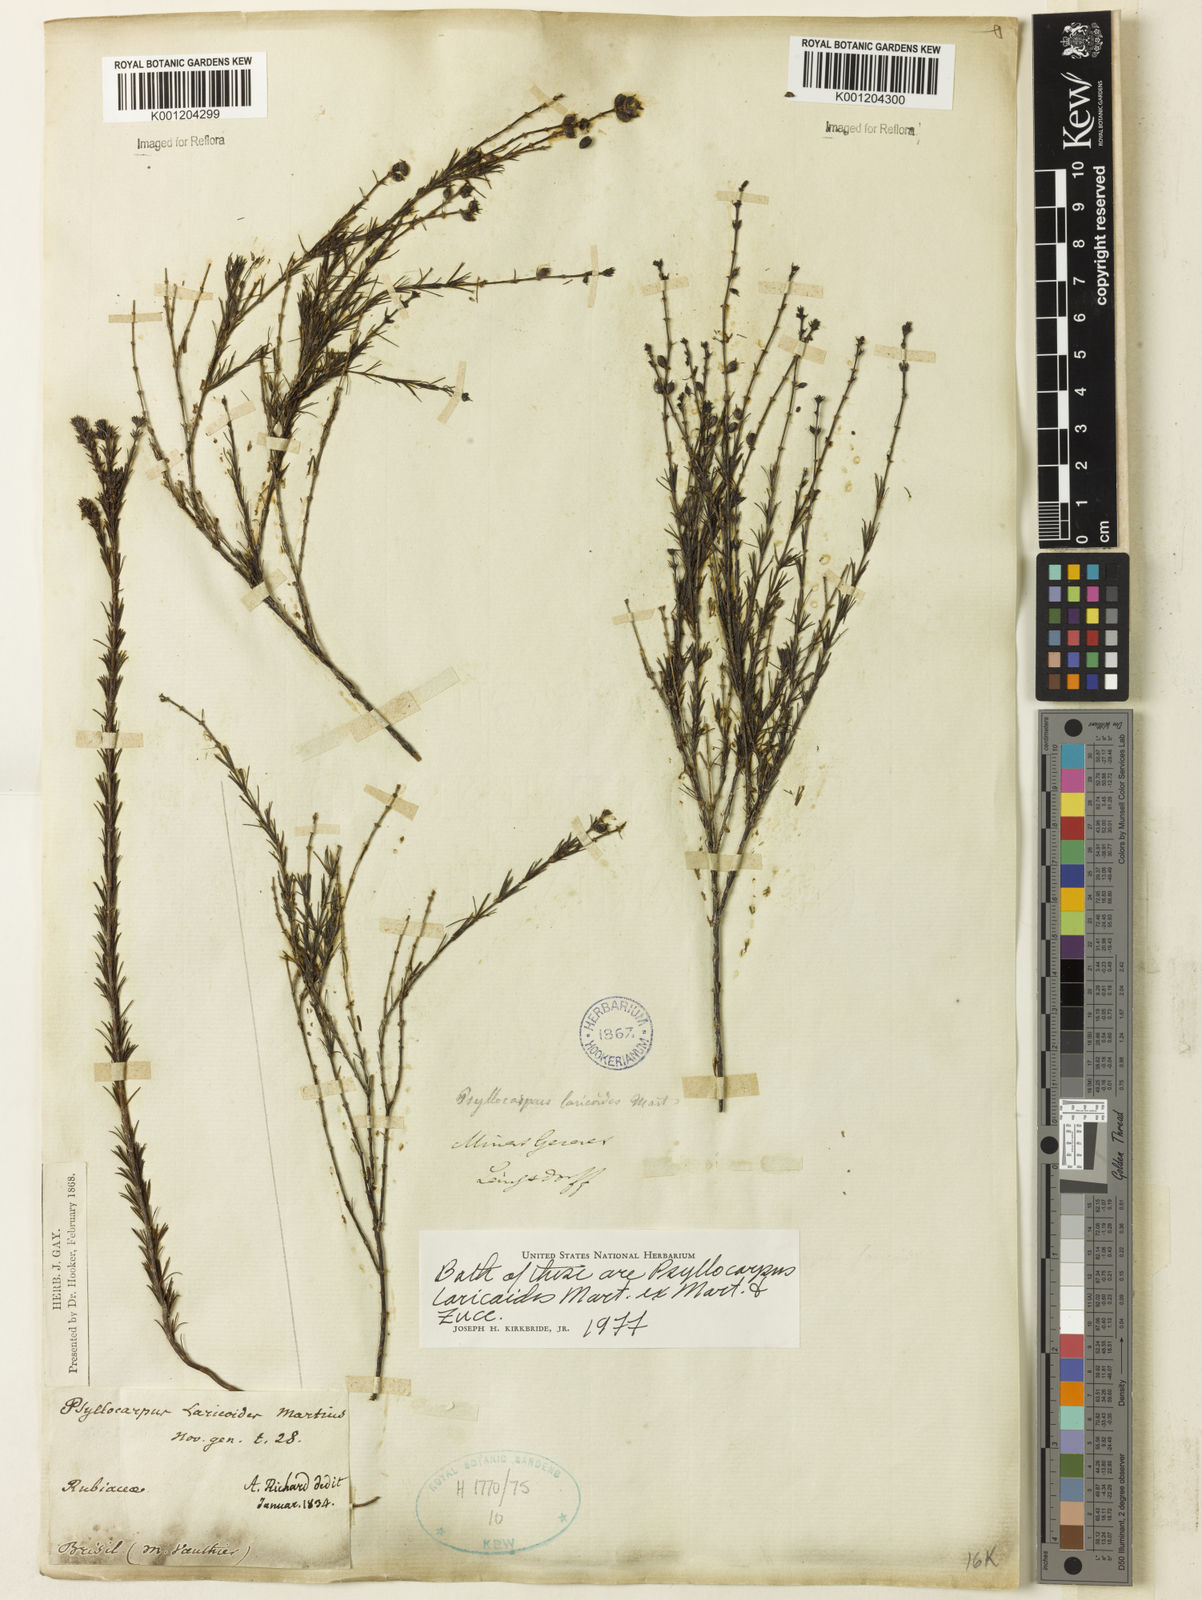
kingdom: Plantae
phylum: Tracheophyta
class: Magnoliopsida
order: Gentianales
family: Rubiaceae
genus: Psyllocarpus
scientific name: Psyllocarpus laricoides
